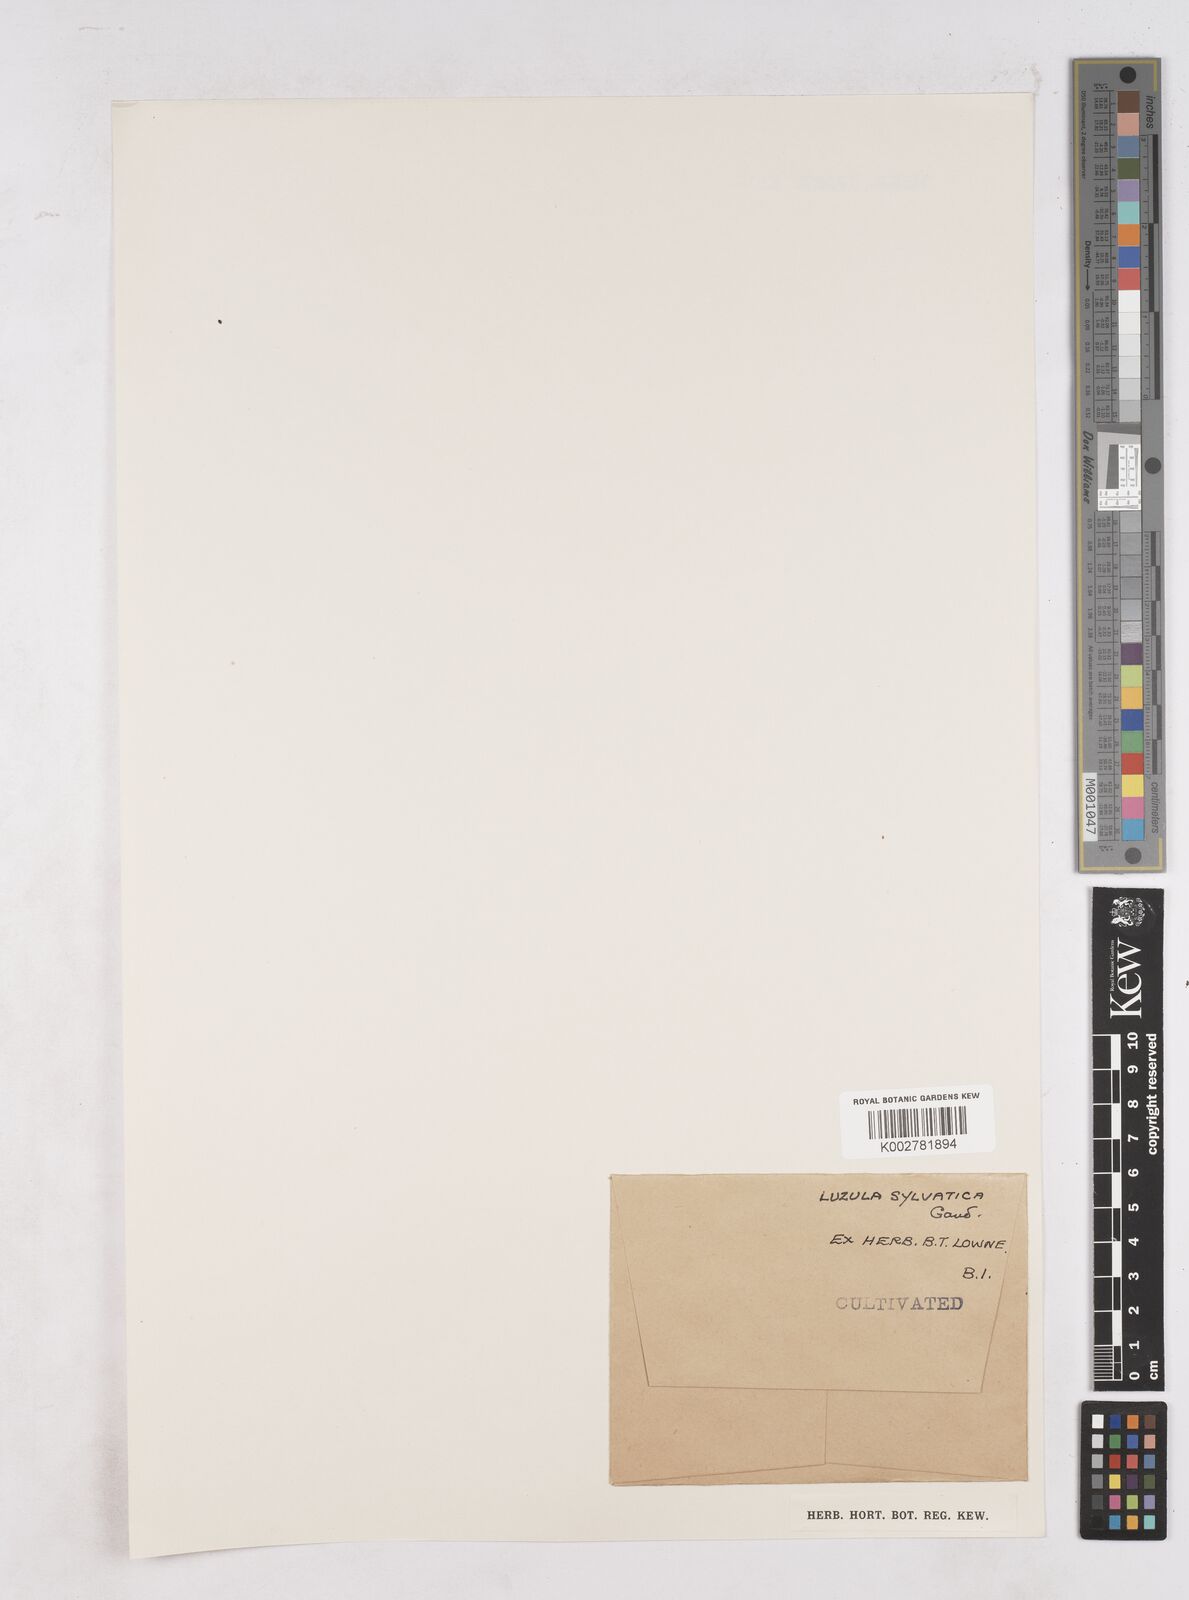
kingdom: Plantae
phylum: Tracheophyta
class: Liliopsida
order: Poales
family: Juncaceae
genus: Luzula
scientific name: Luzula sylvatica
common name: Great wood-rush
